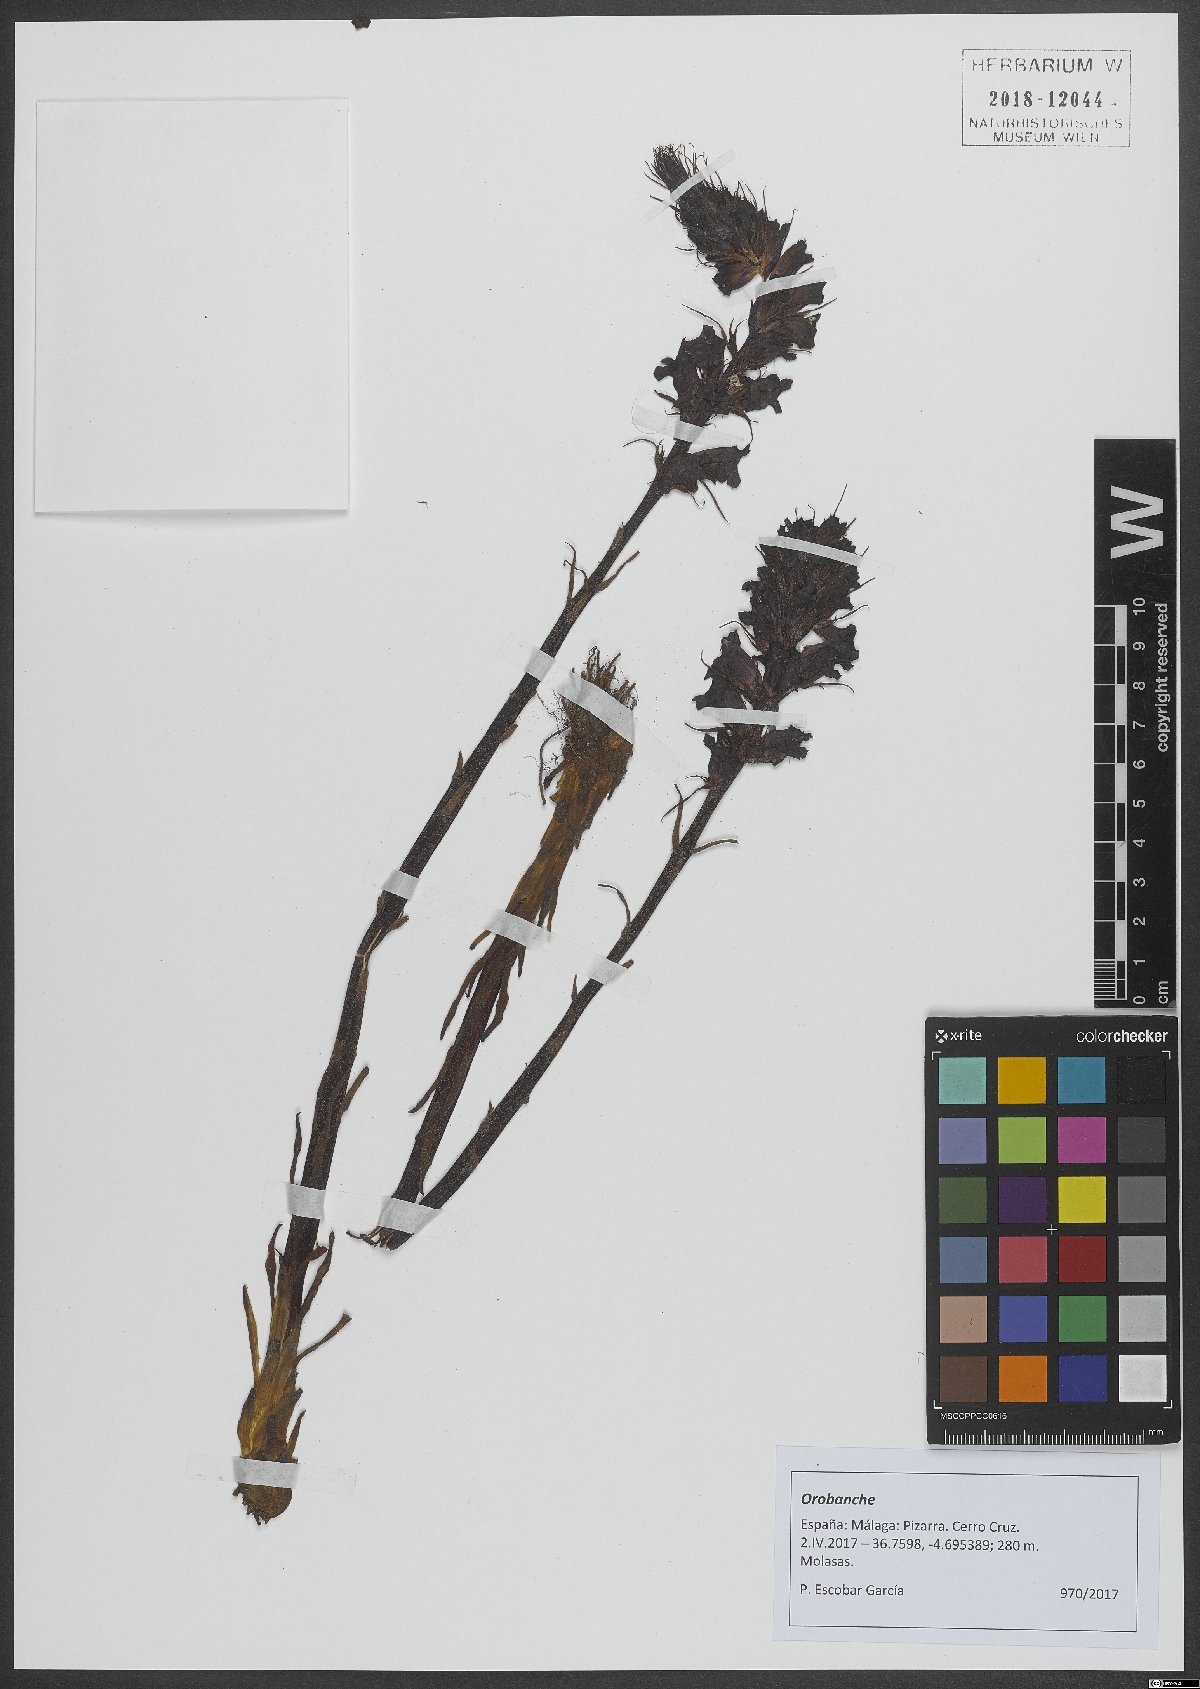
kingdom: Plantae
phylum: Tracheophyta
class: Magnoliopsida
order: Lamiales
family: Orobanchaceae
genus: Orobanche
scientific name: Orobanche
